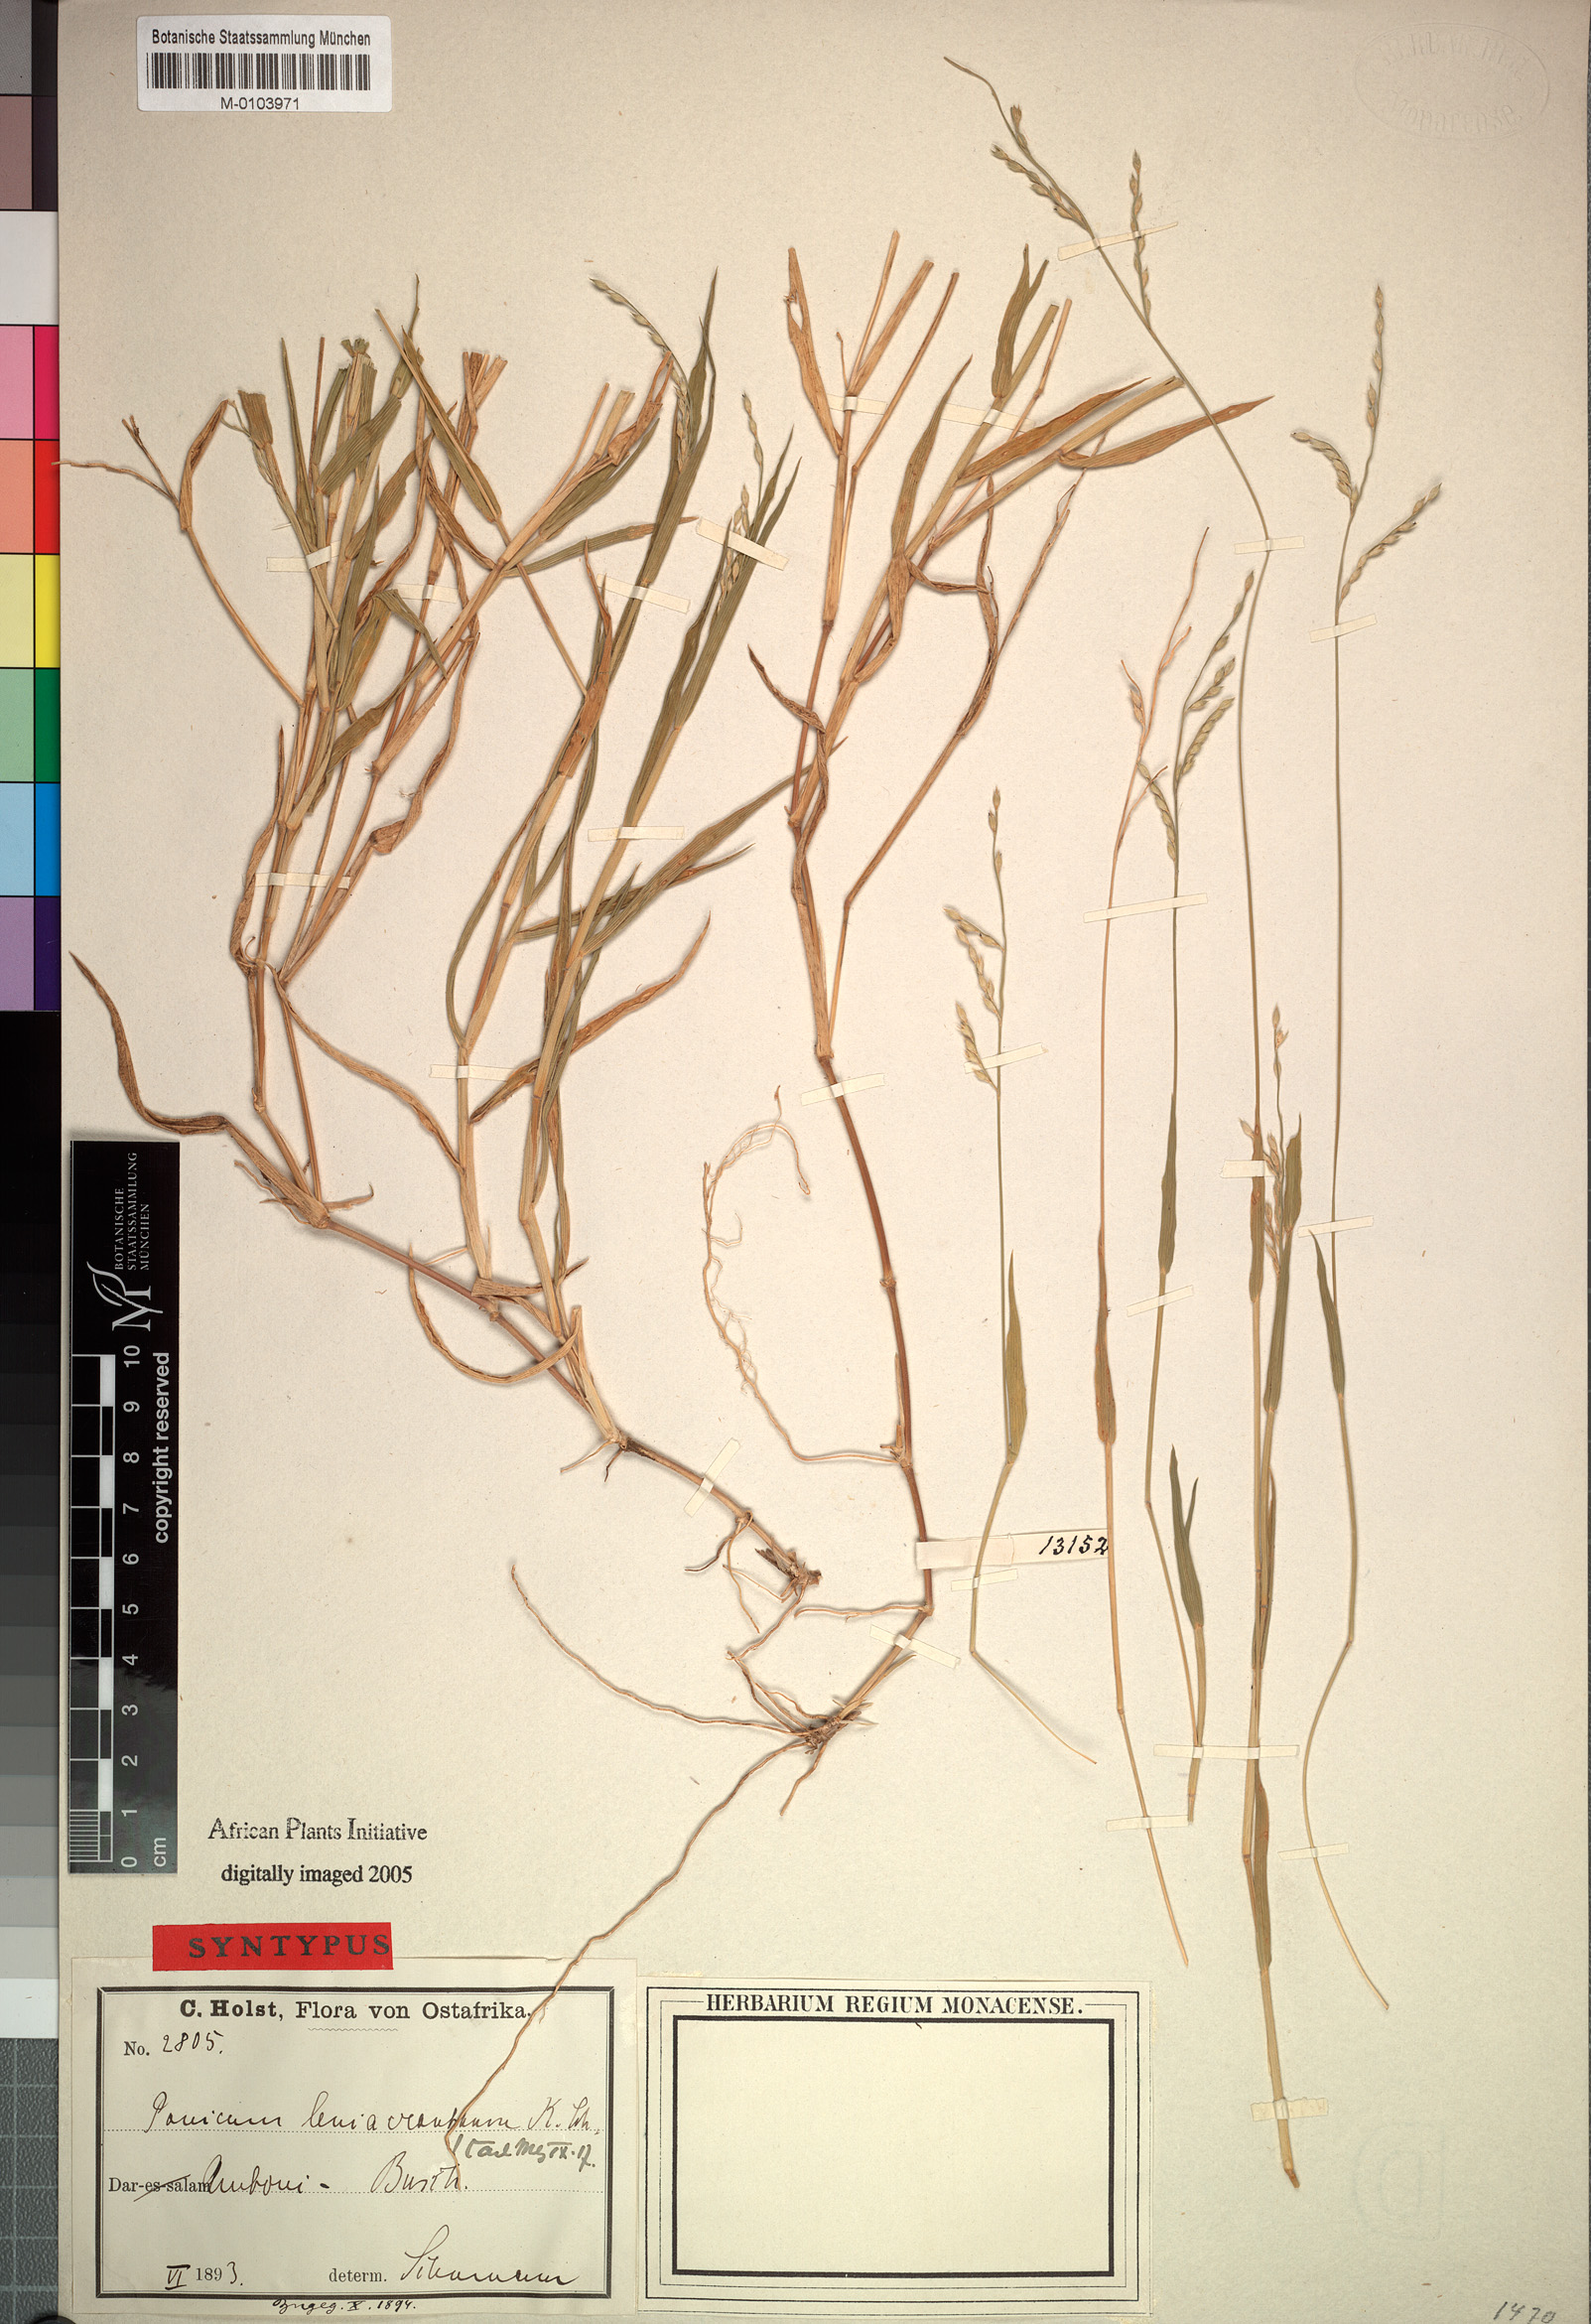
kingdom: Plantae
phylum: Tracheophyta
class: Liliopsida
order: Poales
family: Poaceae
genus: Urochloa
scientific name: Urochloa xantholeuca
